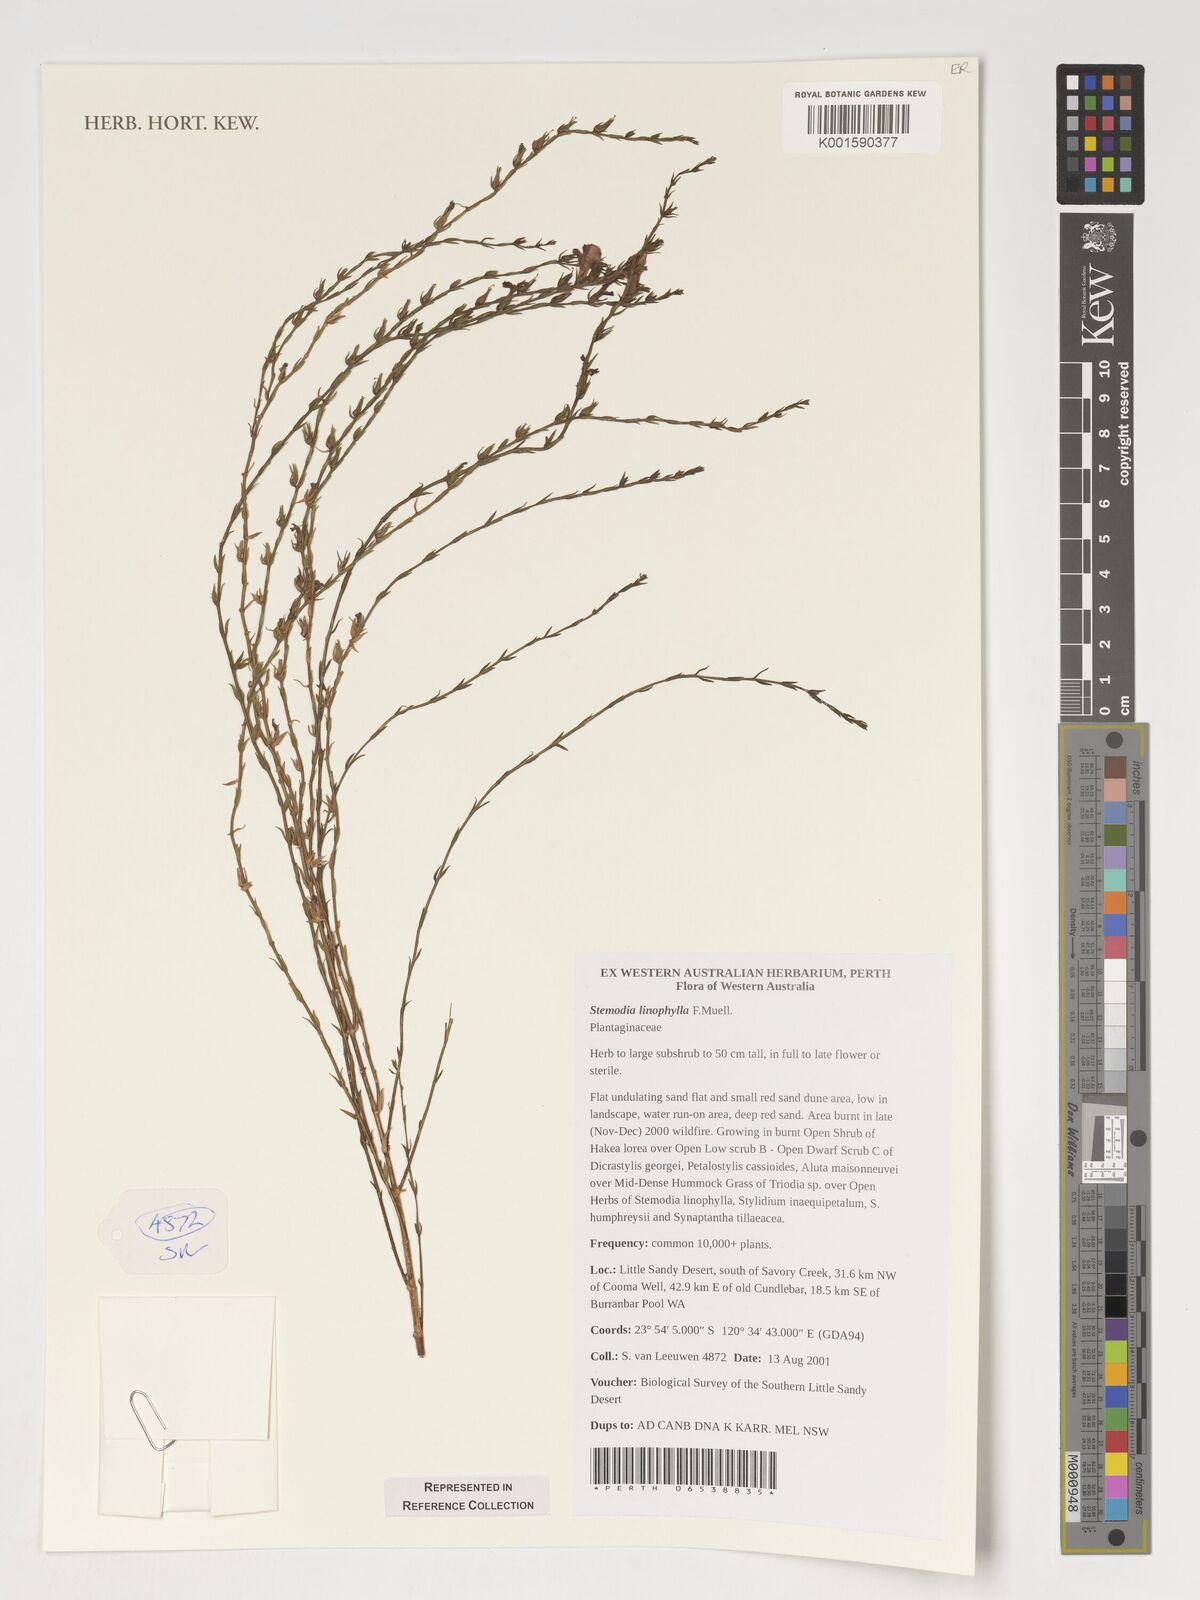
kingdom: Plantae
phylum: Tracheophyta
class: Magnoliopsida
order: Lamiales
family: Plantaginaceae
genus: Stemodia
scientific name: Stemodia linophylla
